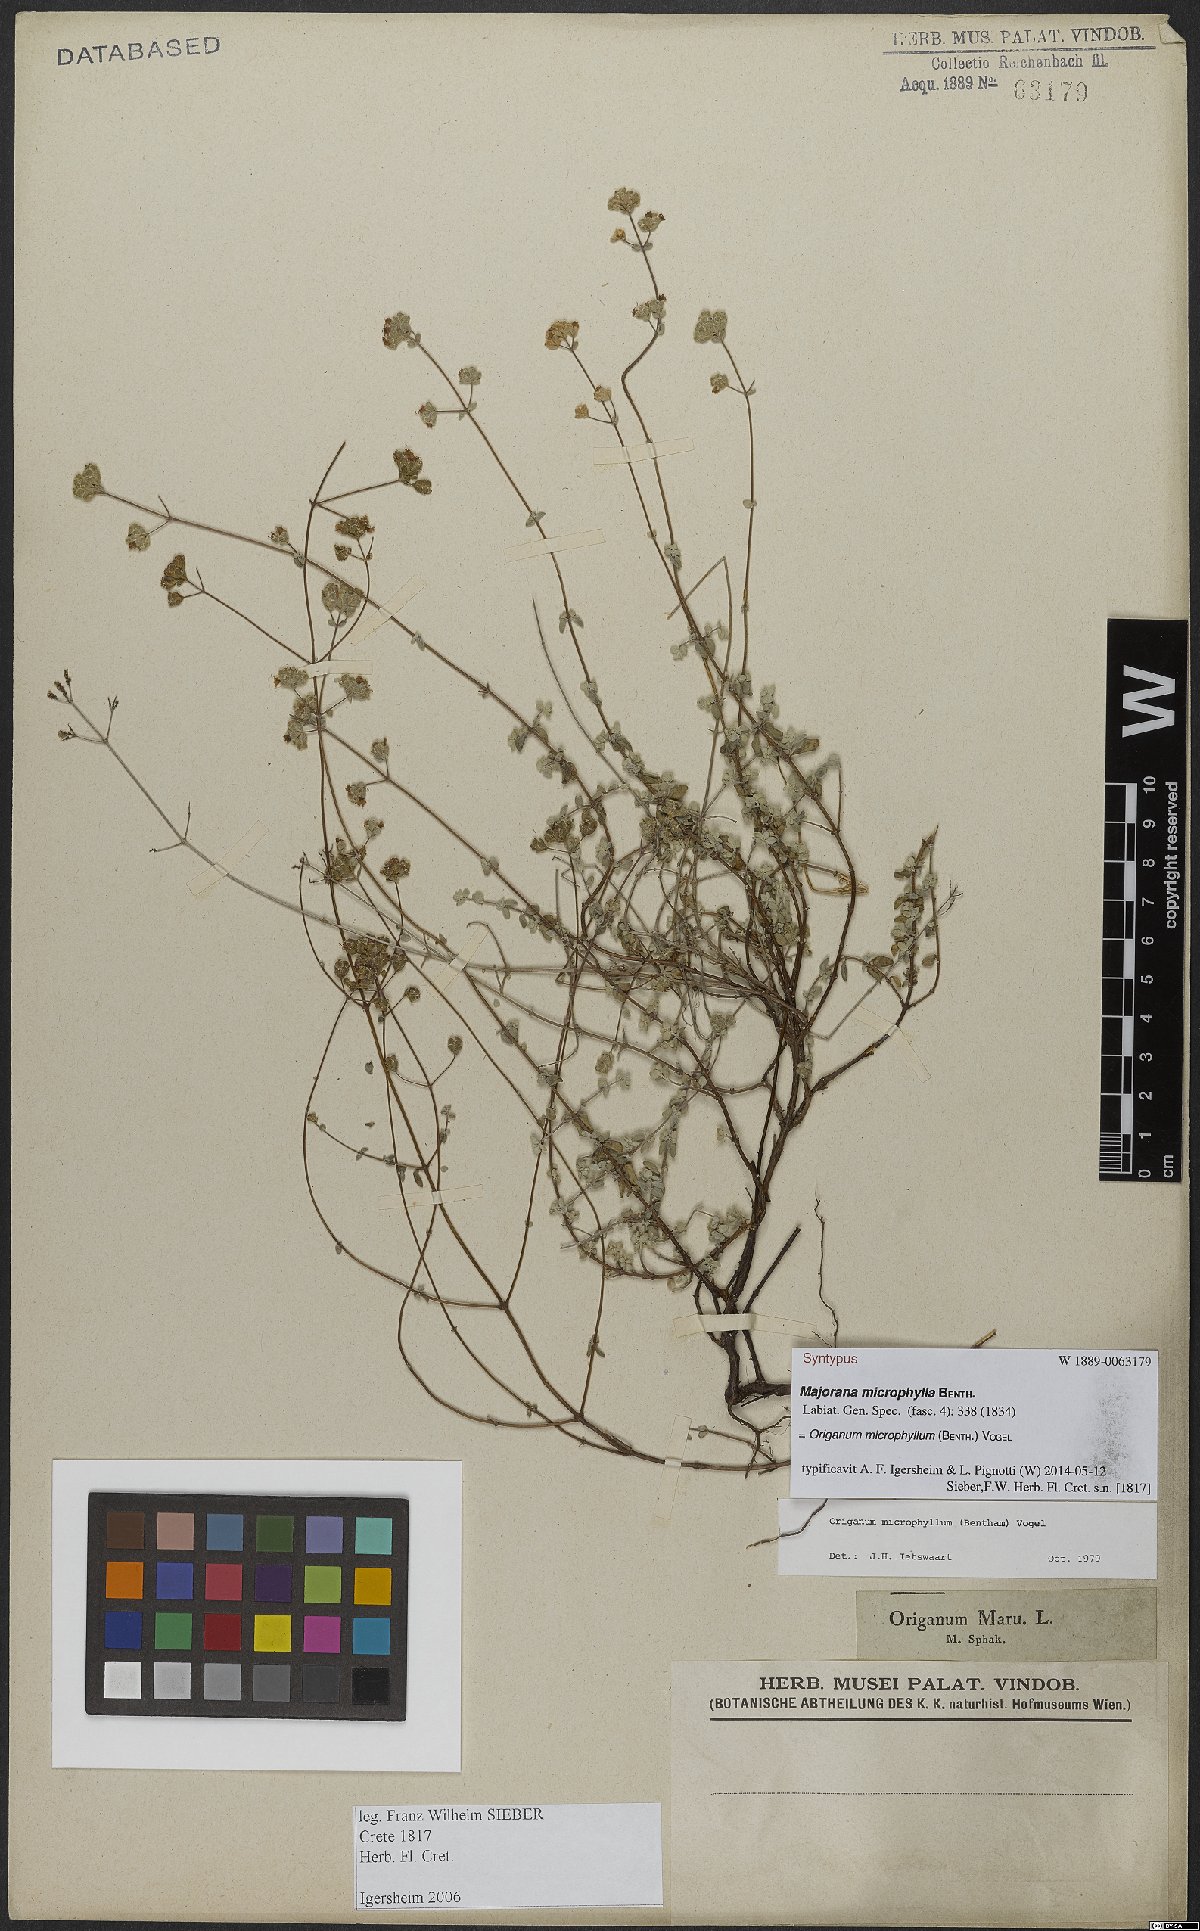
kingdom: Plantae
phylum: Tracheophyta
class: Magnoliopsida
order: Lamiales
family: Lamiaceae
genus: Origanum
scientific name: Origanum microphyllum
